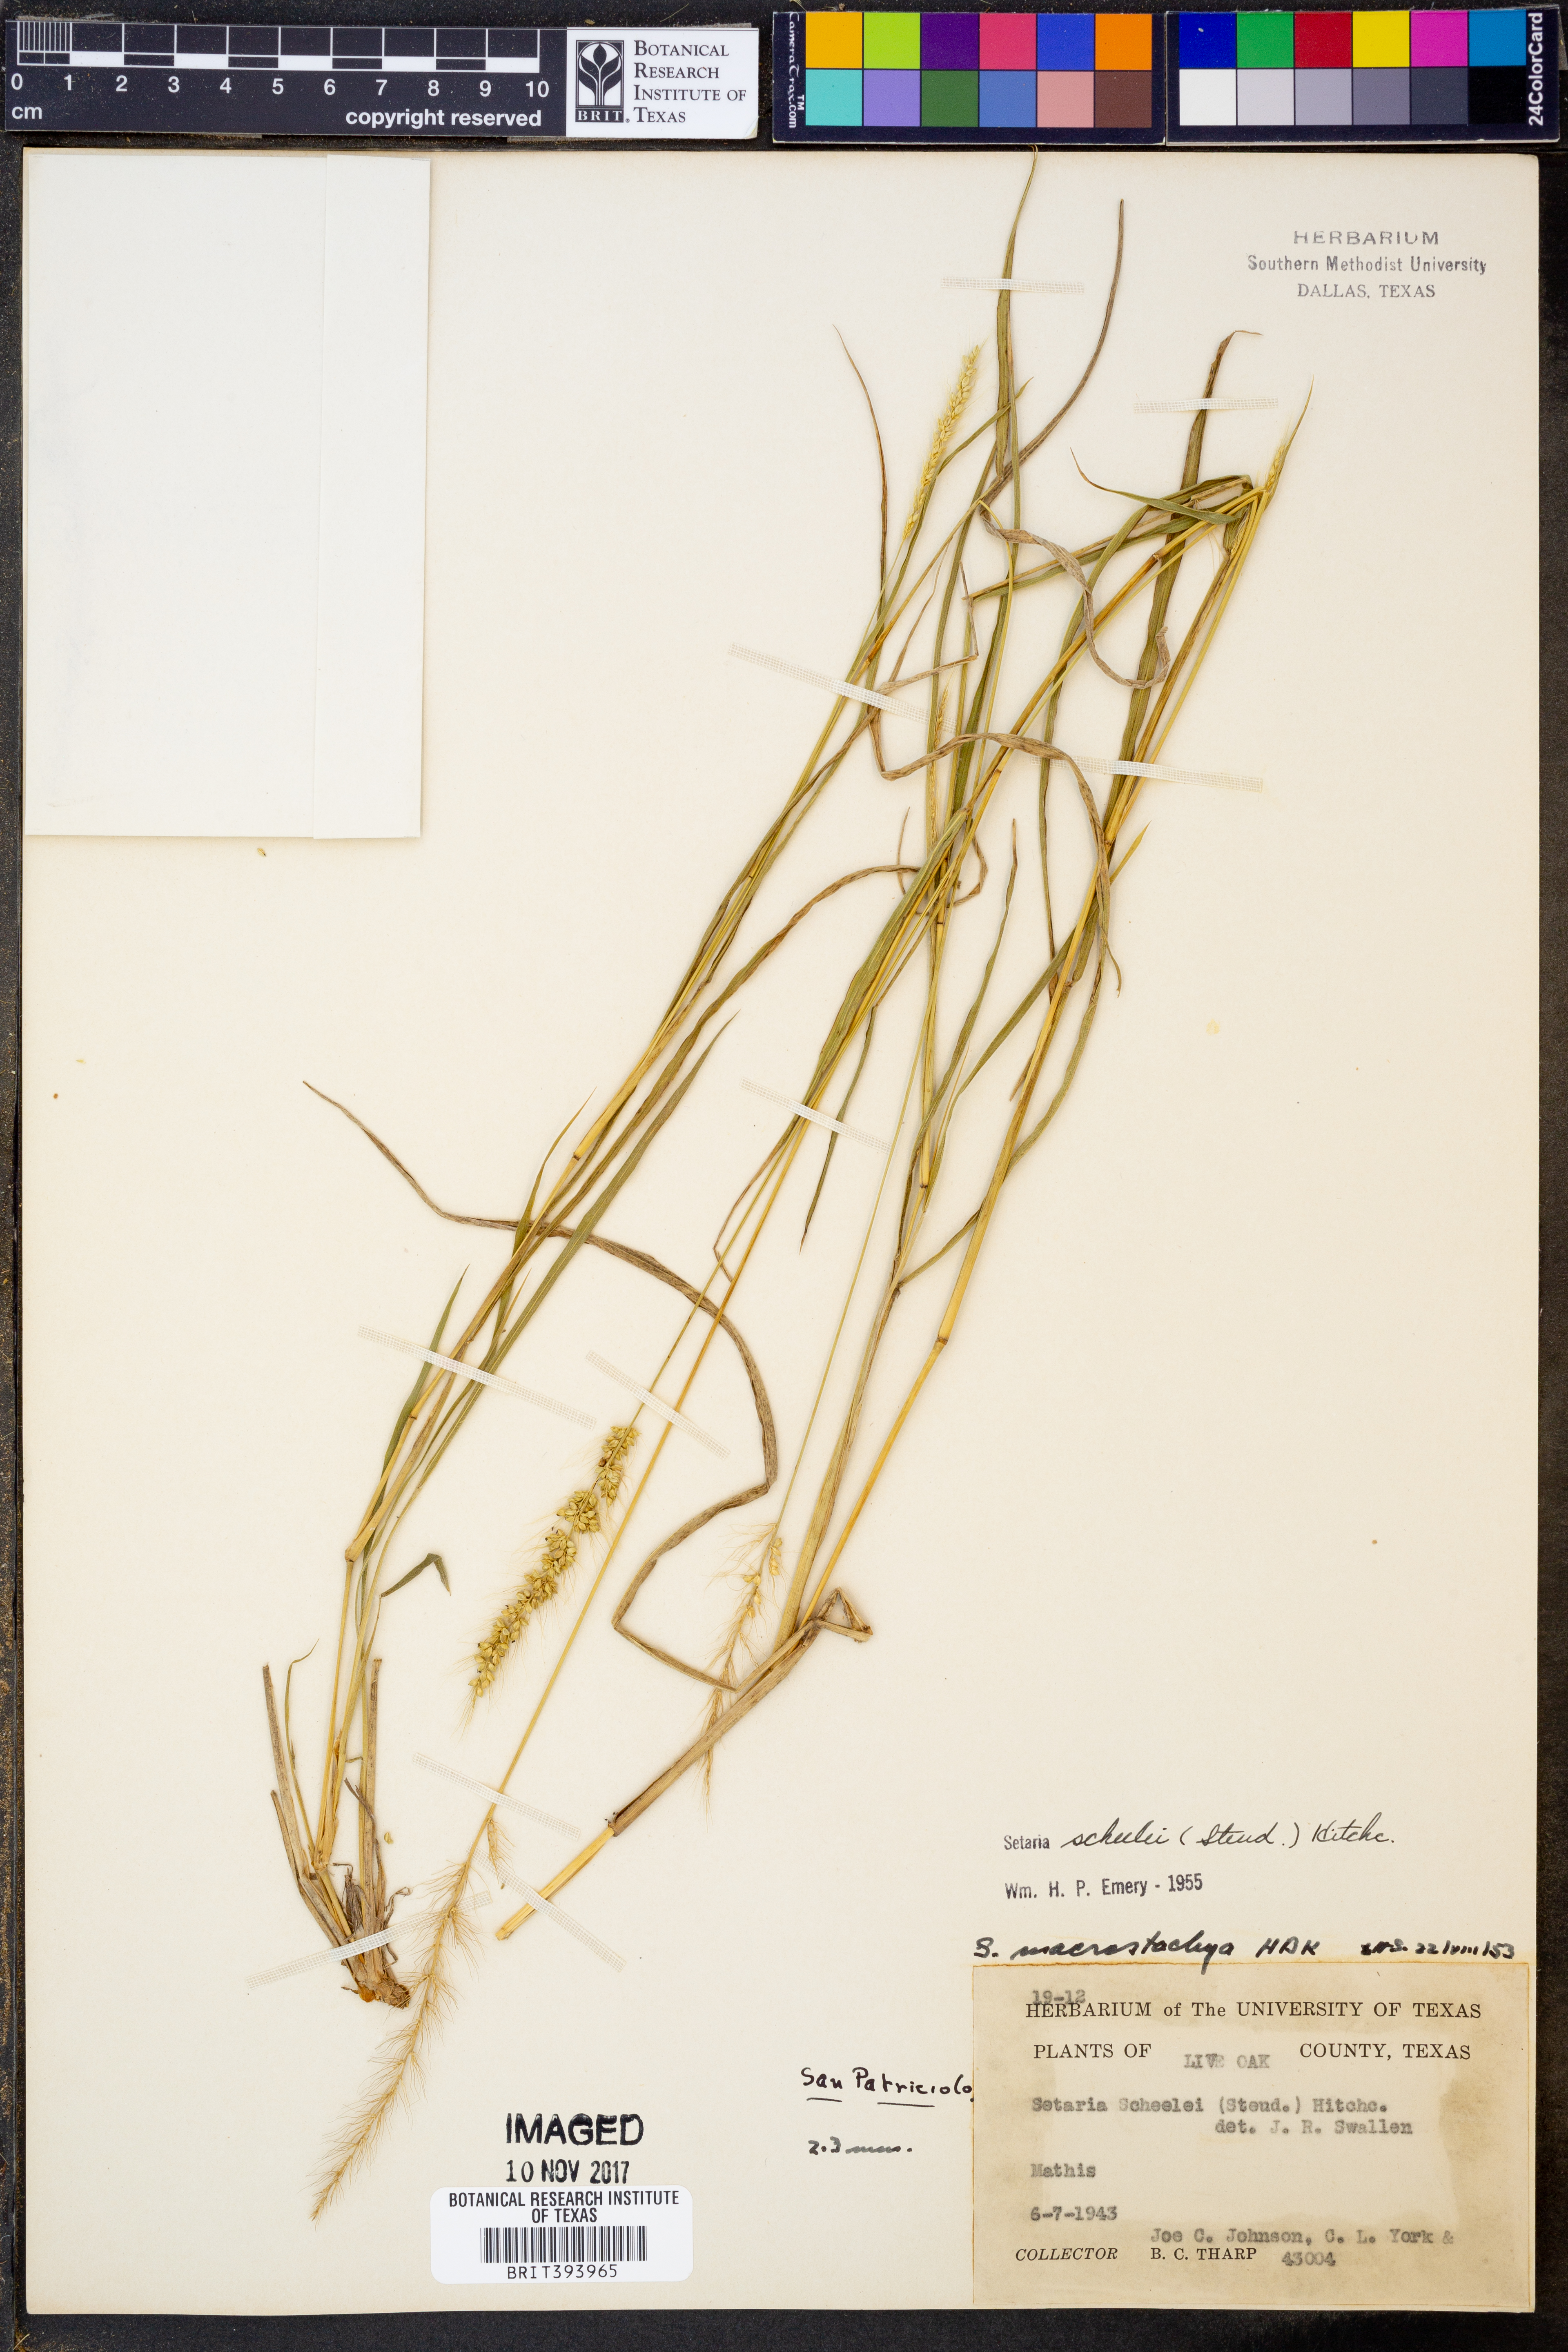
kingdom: Plantae
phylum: Tracheophyta
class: Liliopsida
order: Poales
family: Poaceae
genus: Setaria
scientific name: Setaria scheelei
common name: Southwestern bristle grass
